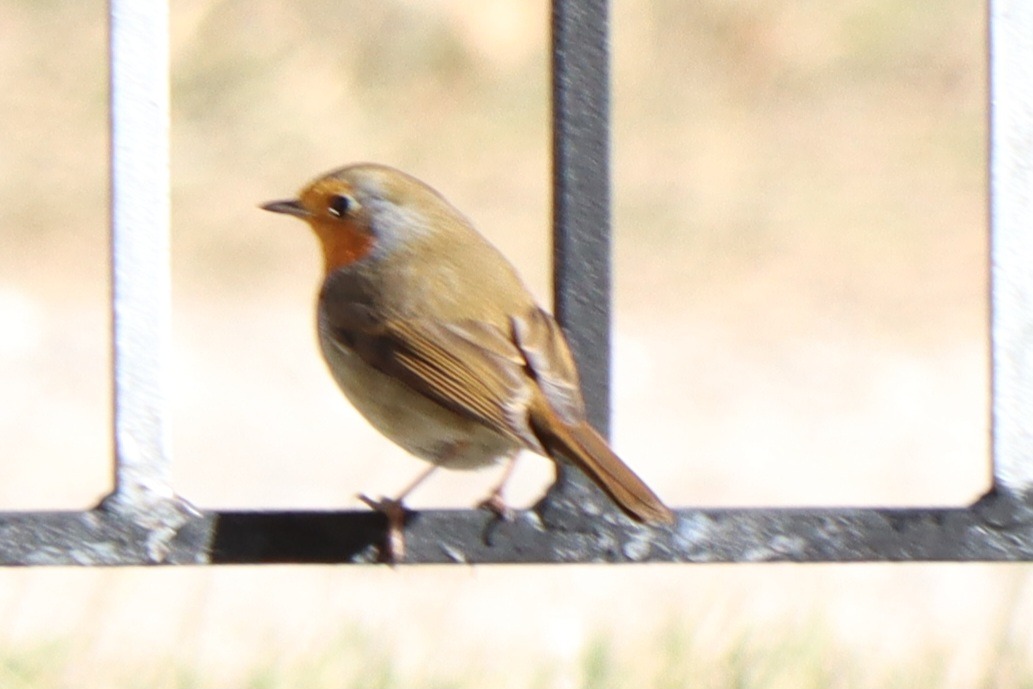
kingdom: Animalia
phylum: Chordata
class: Aves
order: Passeriformes
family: Muscicapidae
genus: Erithacus
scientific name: Erithacus rubecula
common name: Rødhals/rødkælk
